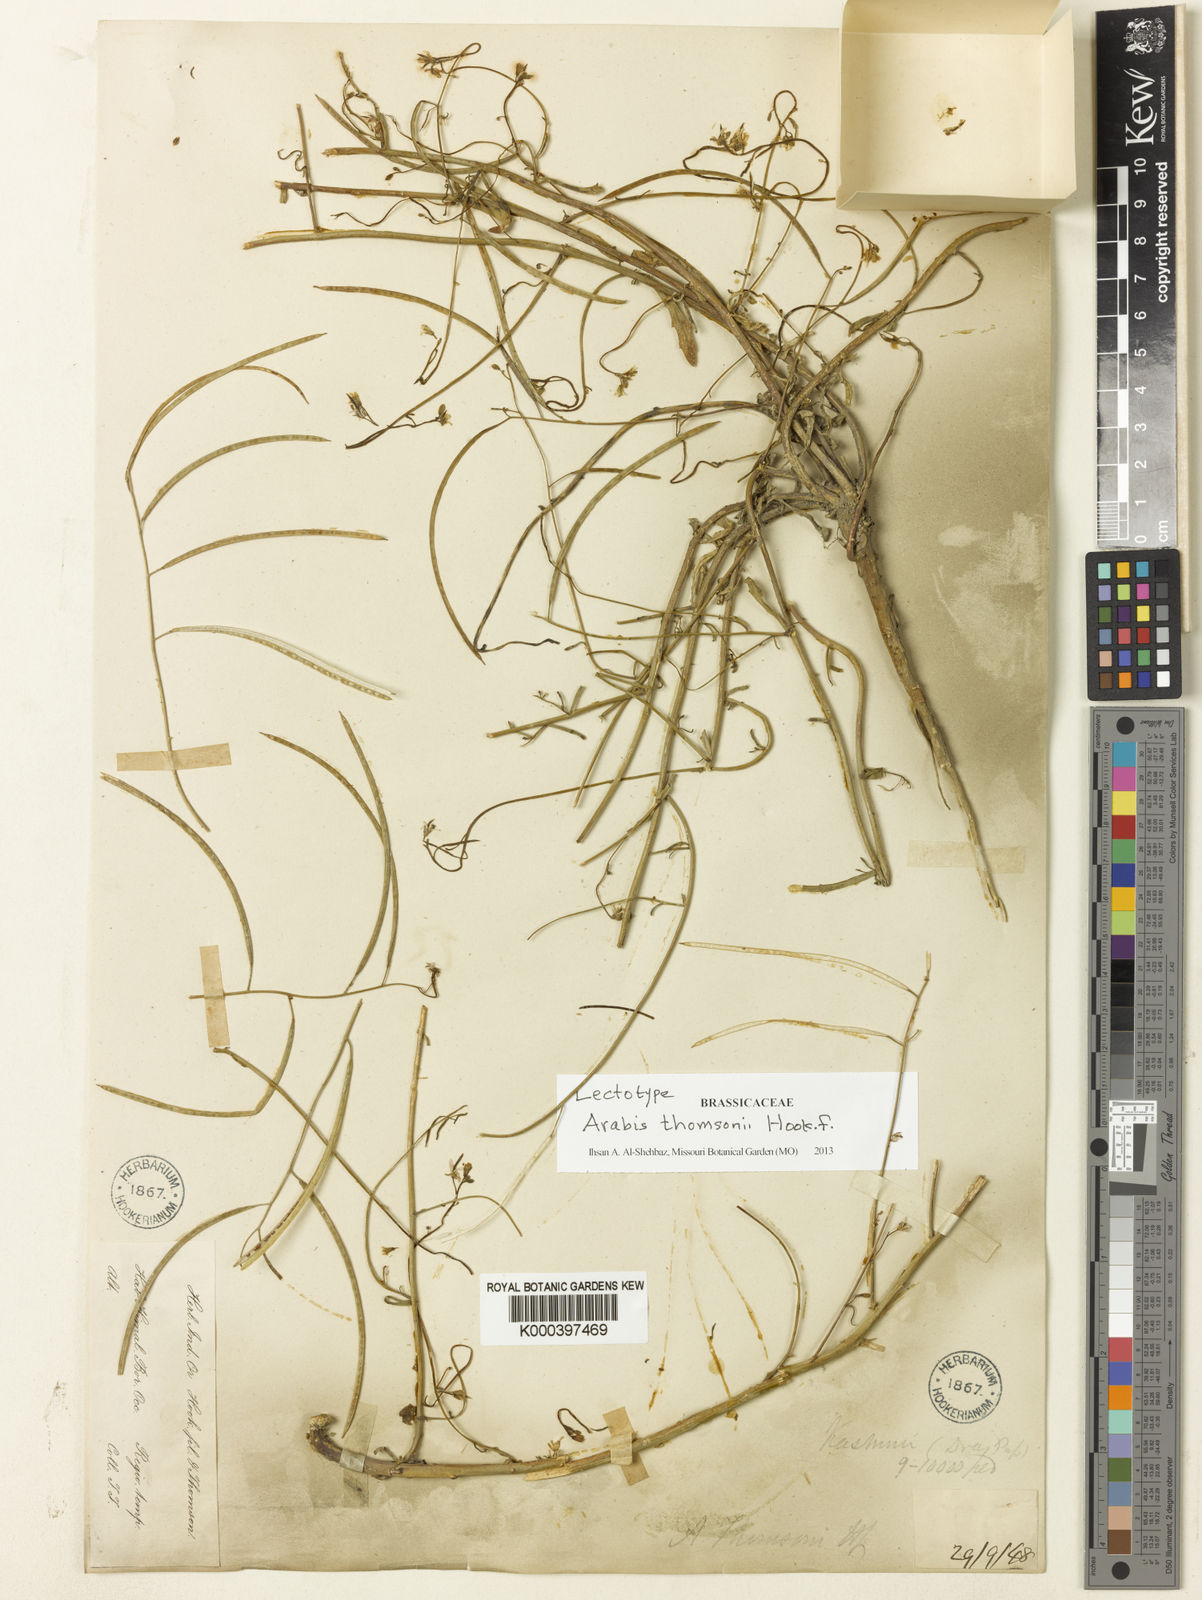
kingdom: Plantae
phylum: Tracheophyta
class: Magnoliopsida
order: Brassicales
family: Brassicaceae
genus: Crucihimalaya
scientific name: Crucihimalaya tibetica
